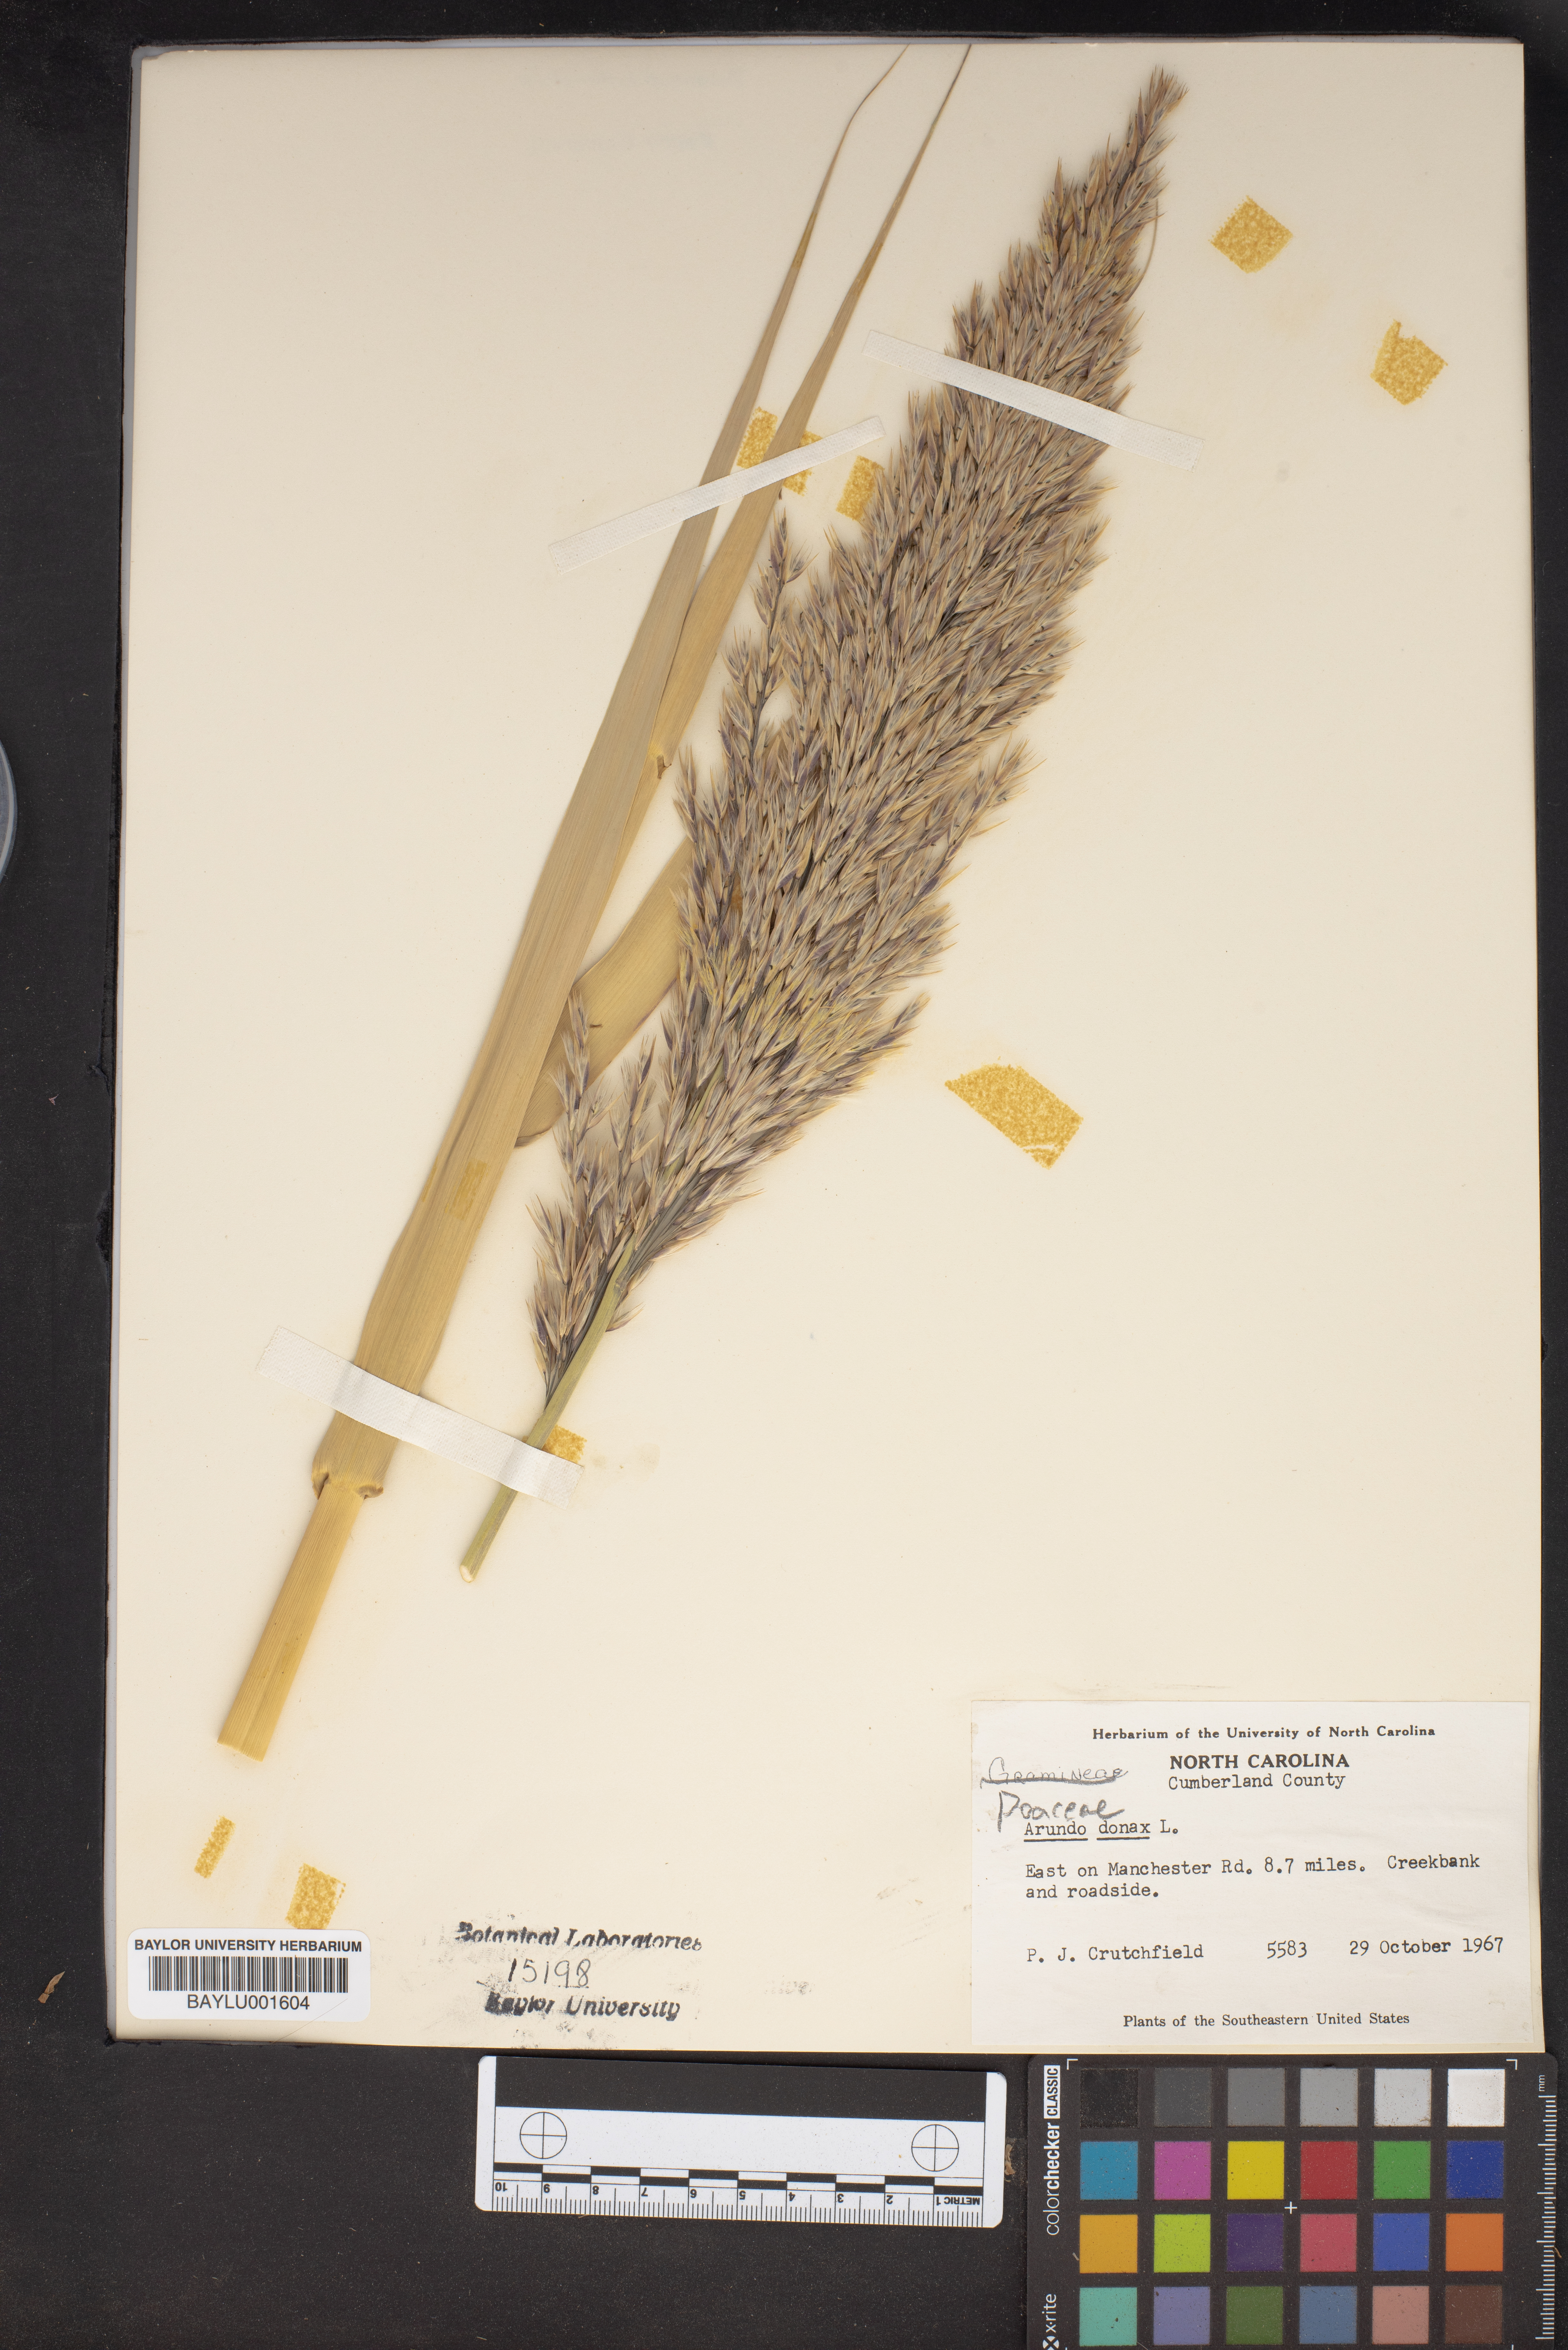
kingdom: Plantae
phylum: Tracheophyta
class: Liliopsida
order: Poales
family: Poaceae
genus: Arundo
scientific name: Arundo donax
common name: Giant reed
